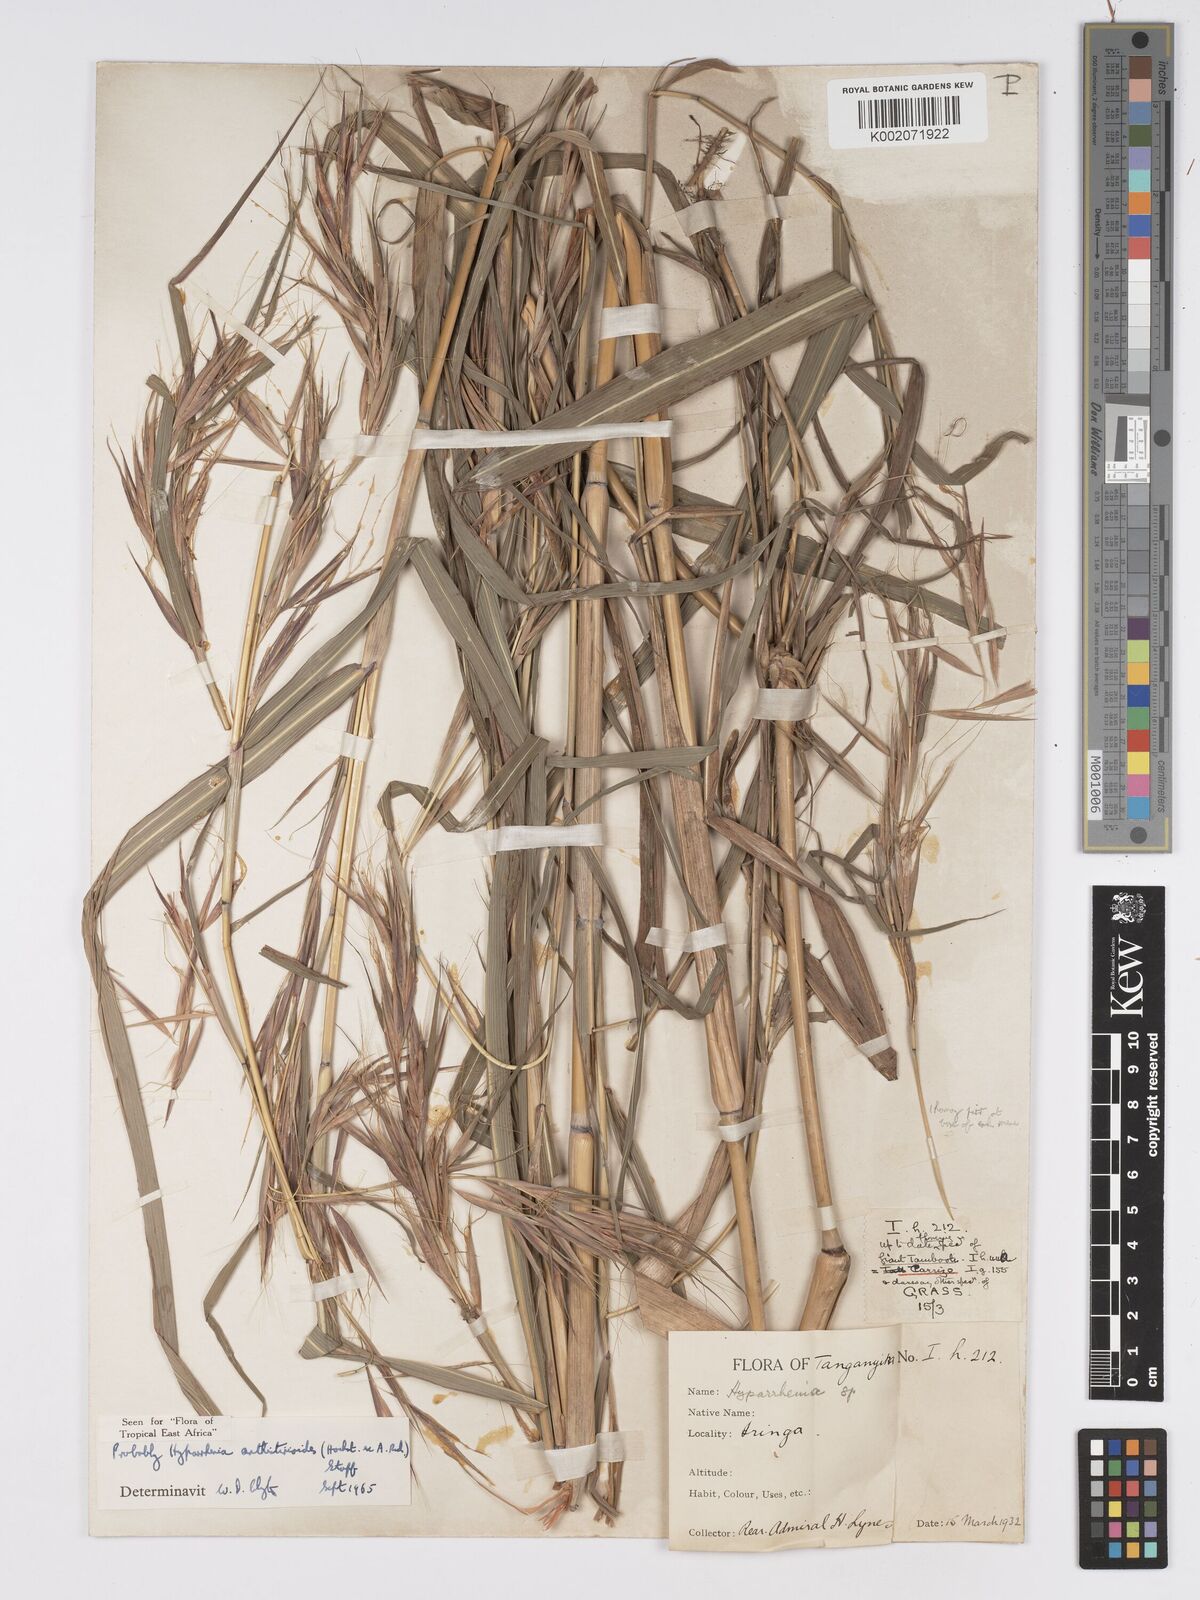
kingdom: Plantae
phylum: Tracheophyta
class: Liliopsida
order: Poales
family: Poaceae
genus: Hyparrhenia
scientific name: Hyparrhenia anthistirioides
